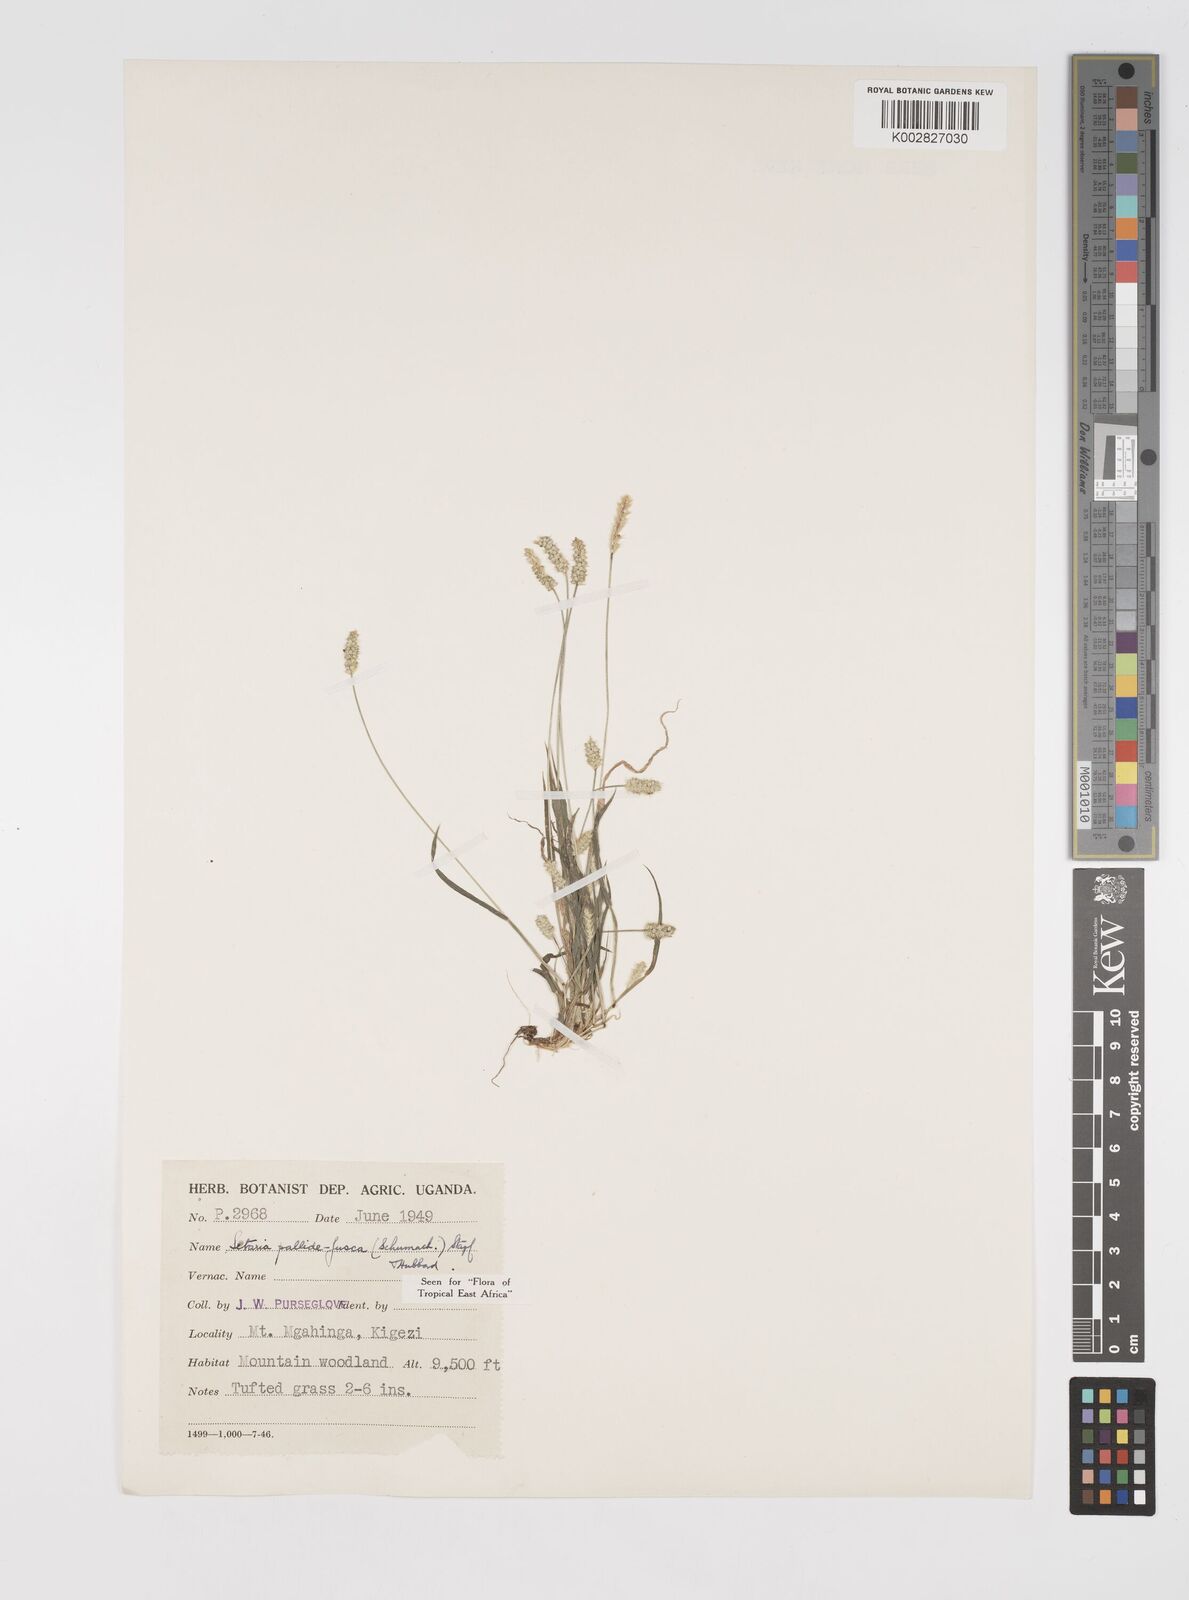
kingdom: Plantae
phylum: Tracheophyta
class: Liliopsida
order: Poales
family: Poaceae
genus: Setaria
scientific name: Setaria pumila
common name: Yellow bristle-grass
